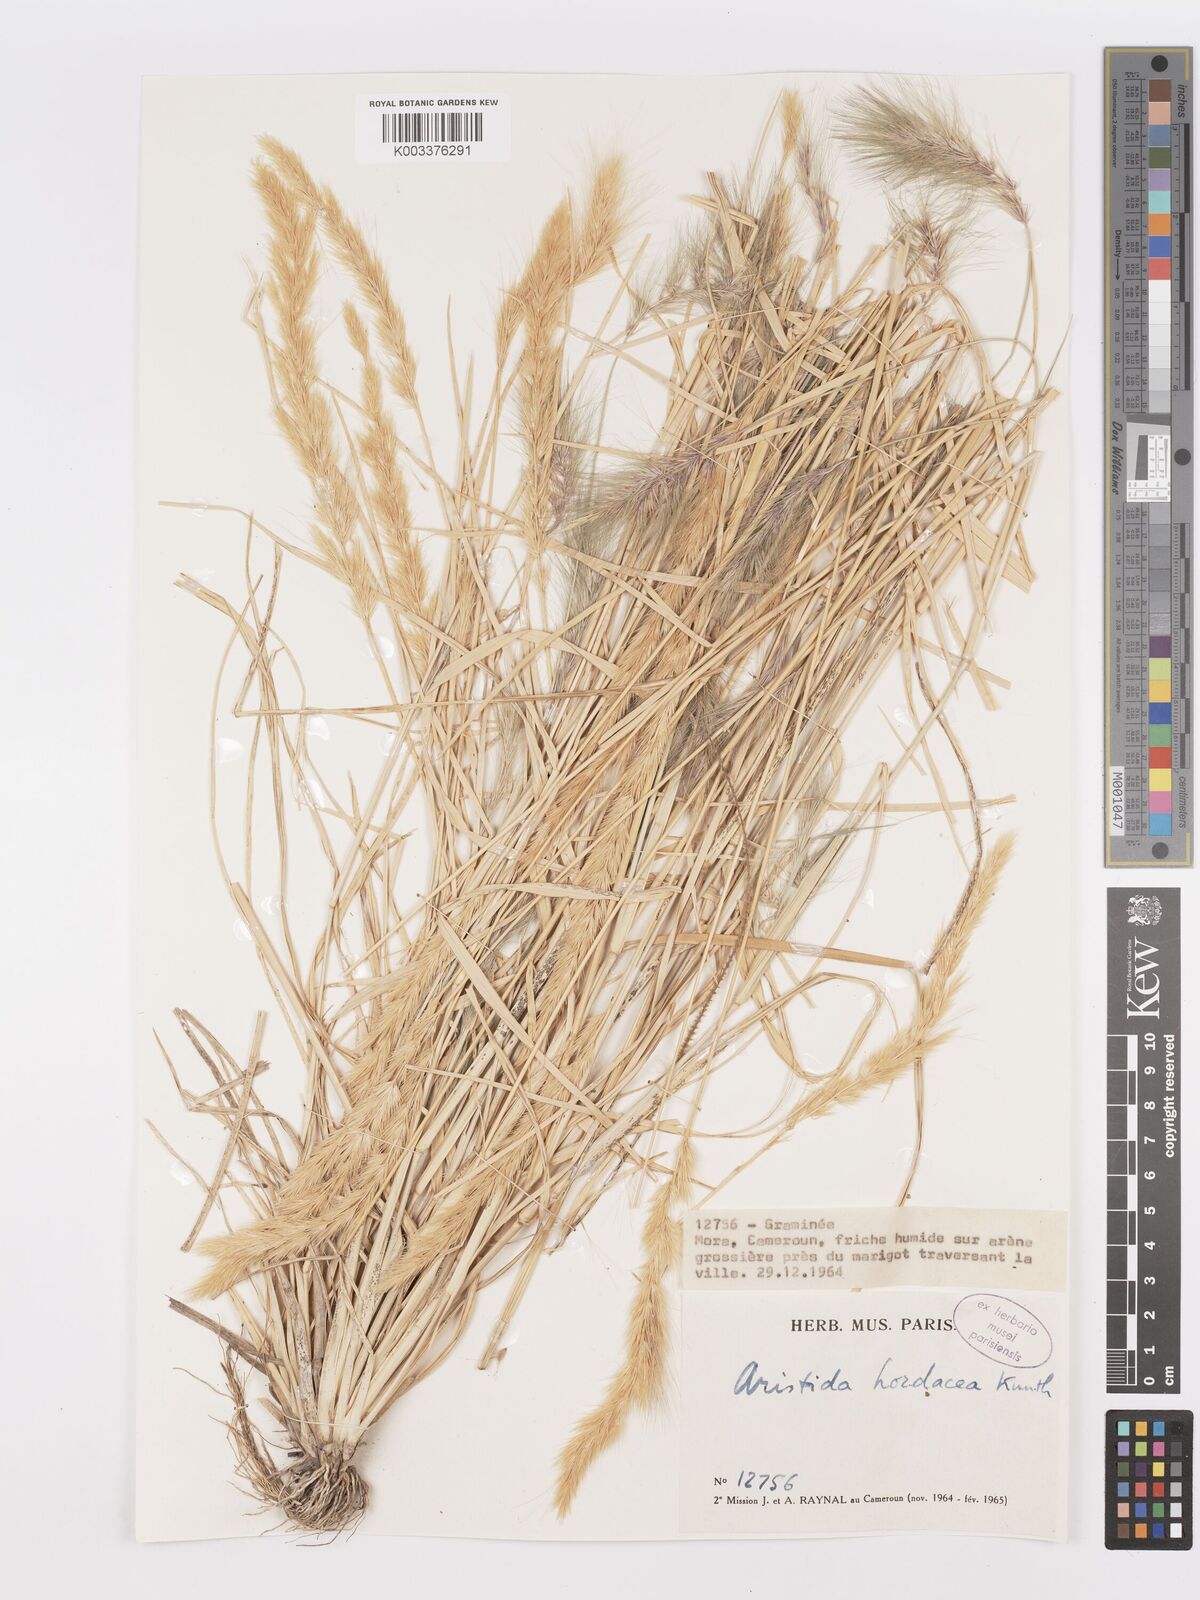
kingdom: Plantae
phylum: Tracheophyta
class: Liliopsida
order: Poales
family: Poaceae
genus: Aristida
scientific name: Aristida hordeacea
